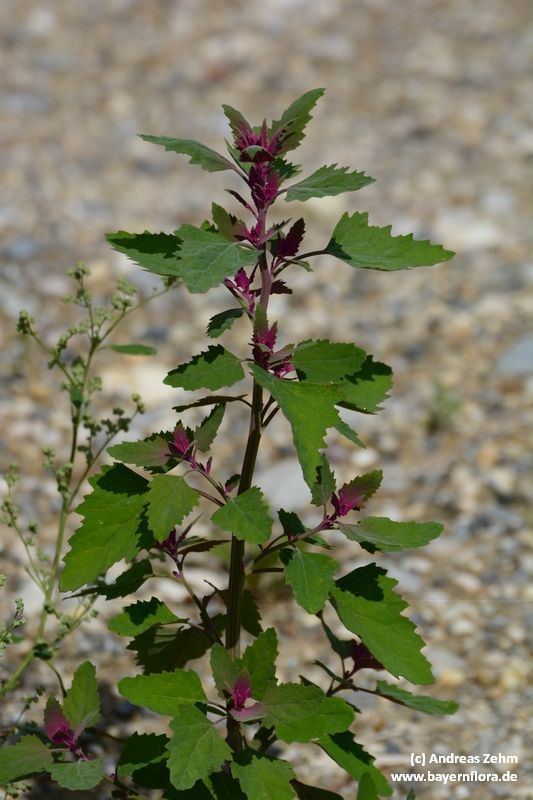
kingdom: Plantae
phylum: Tracheophyta
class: Magnoliopsida
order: Caryophyllales
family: Amaranthaceae
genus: Chenopodium
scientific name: Chenopodium giganteum
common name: Magentaspreen
